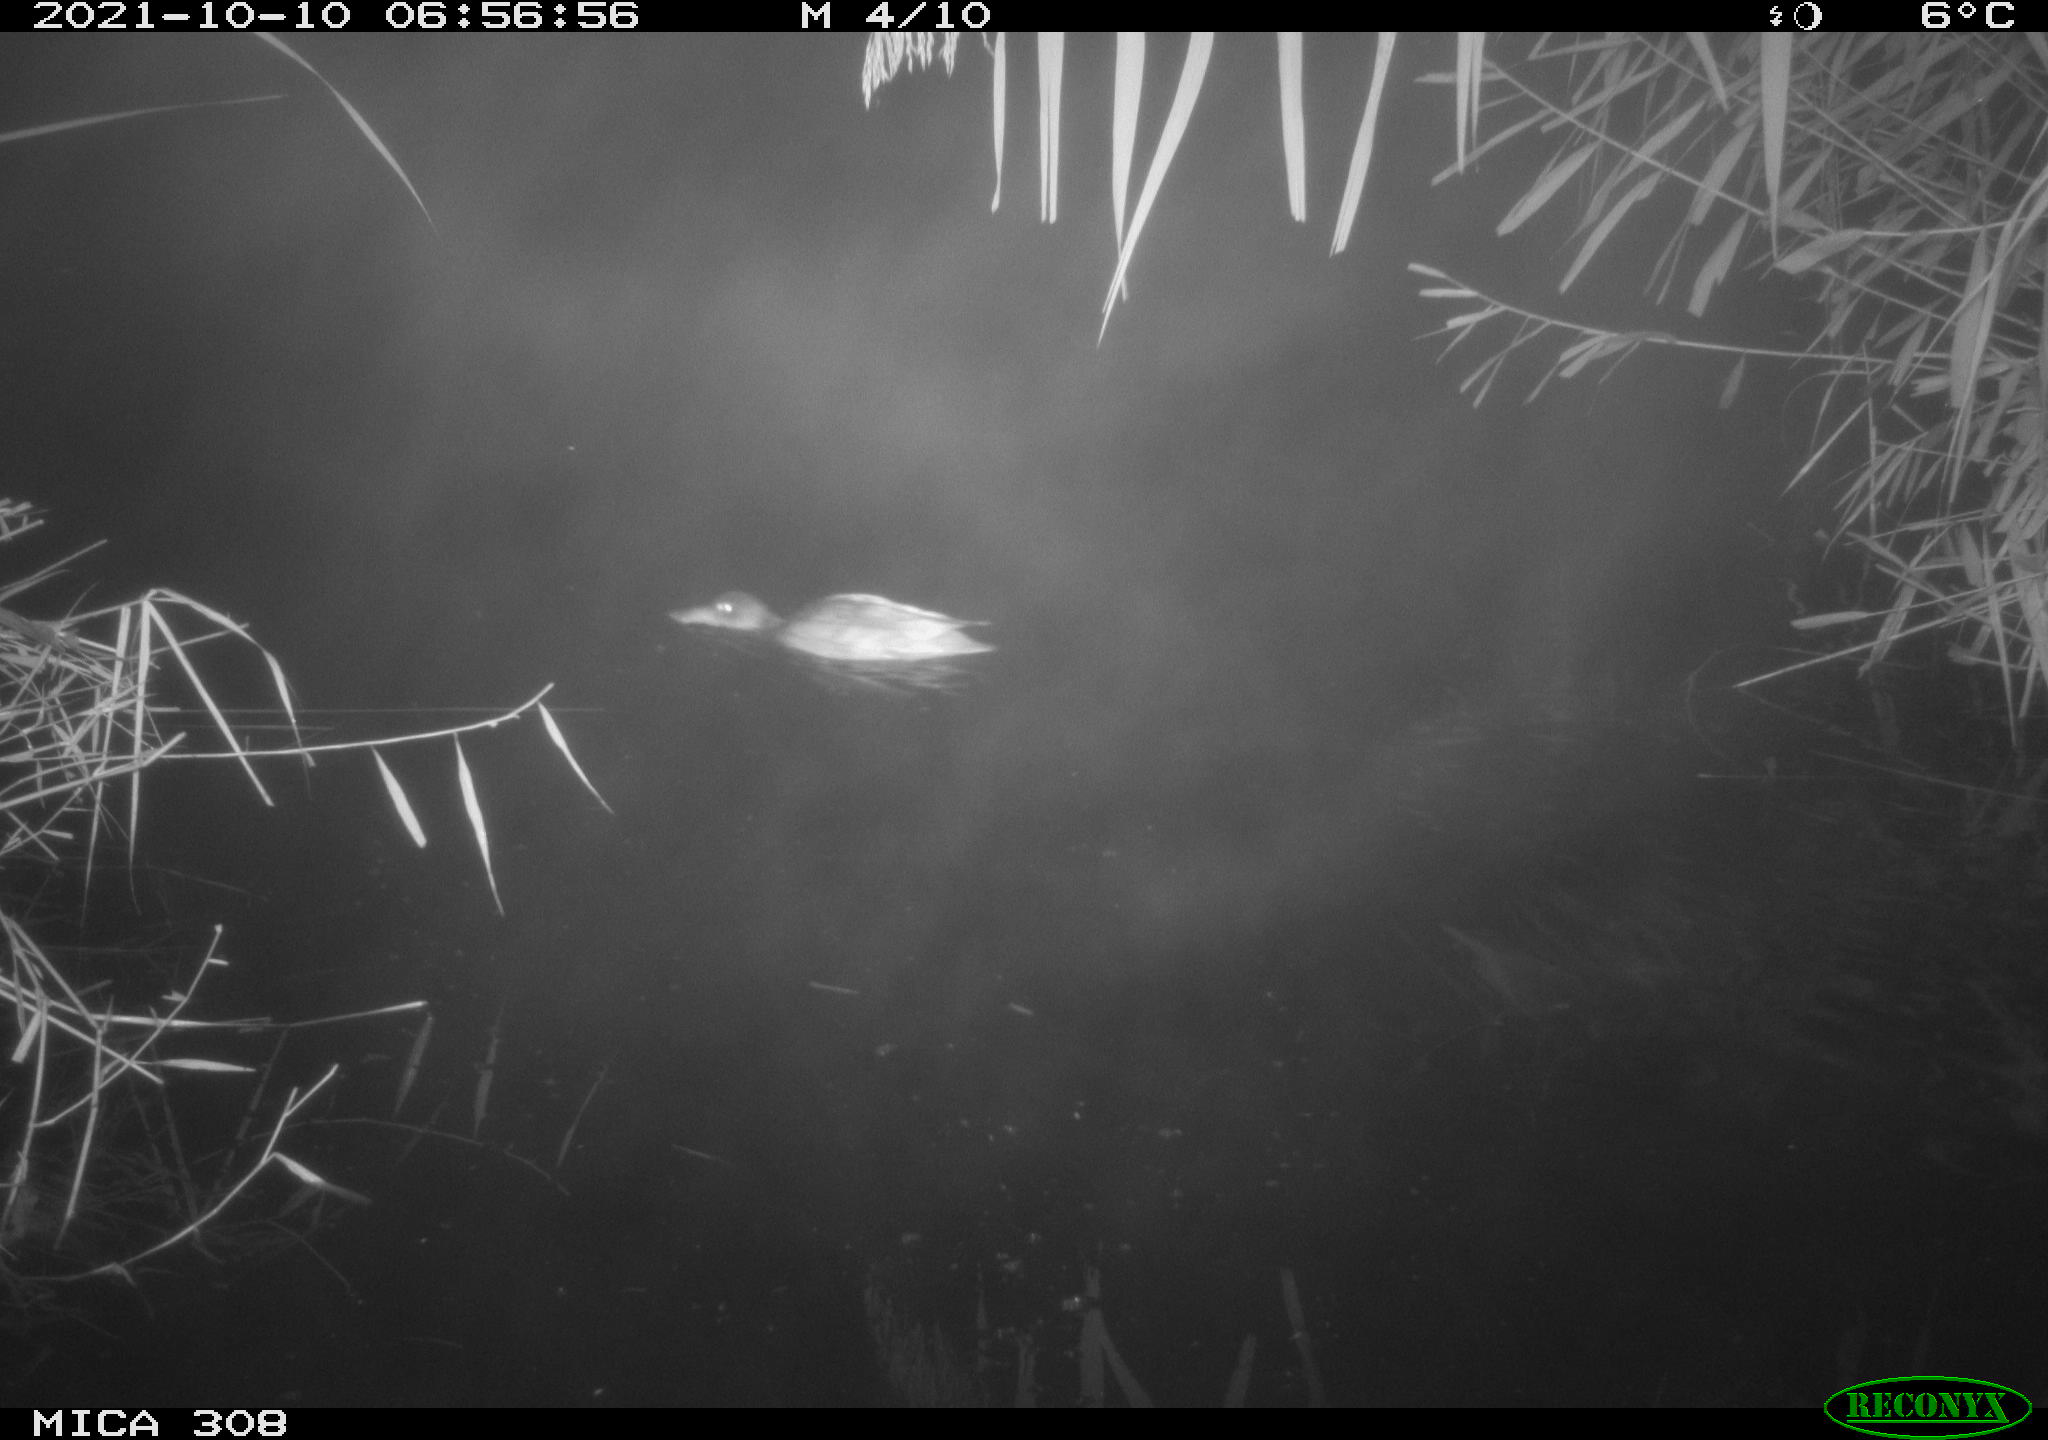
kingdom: Animalia
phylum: Chordata
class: Aves
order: Anseriformes
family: Anatidae
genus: Spatula
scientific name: Spatula clypeata
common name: Northern shoveler
